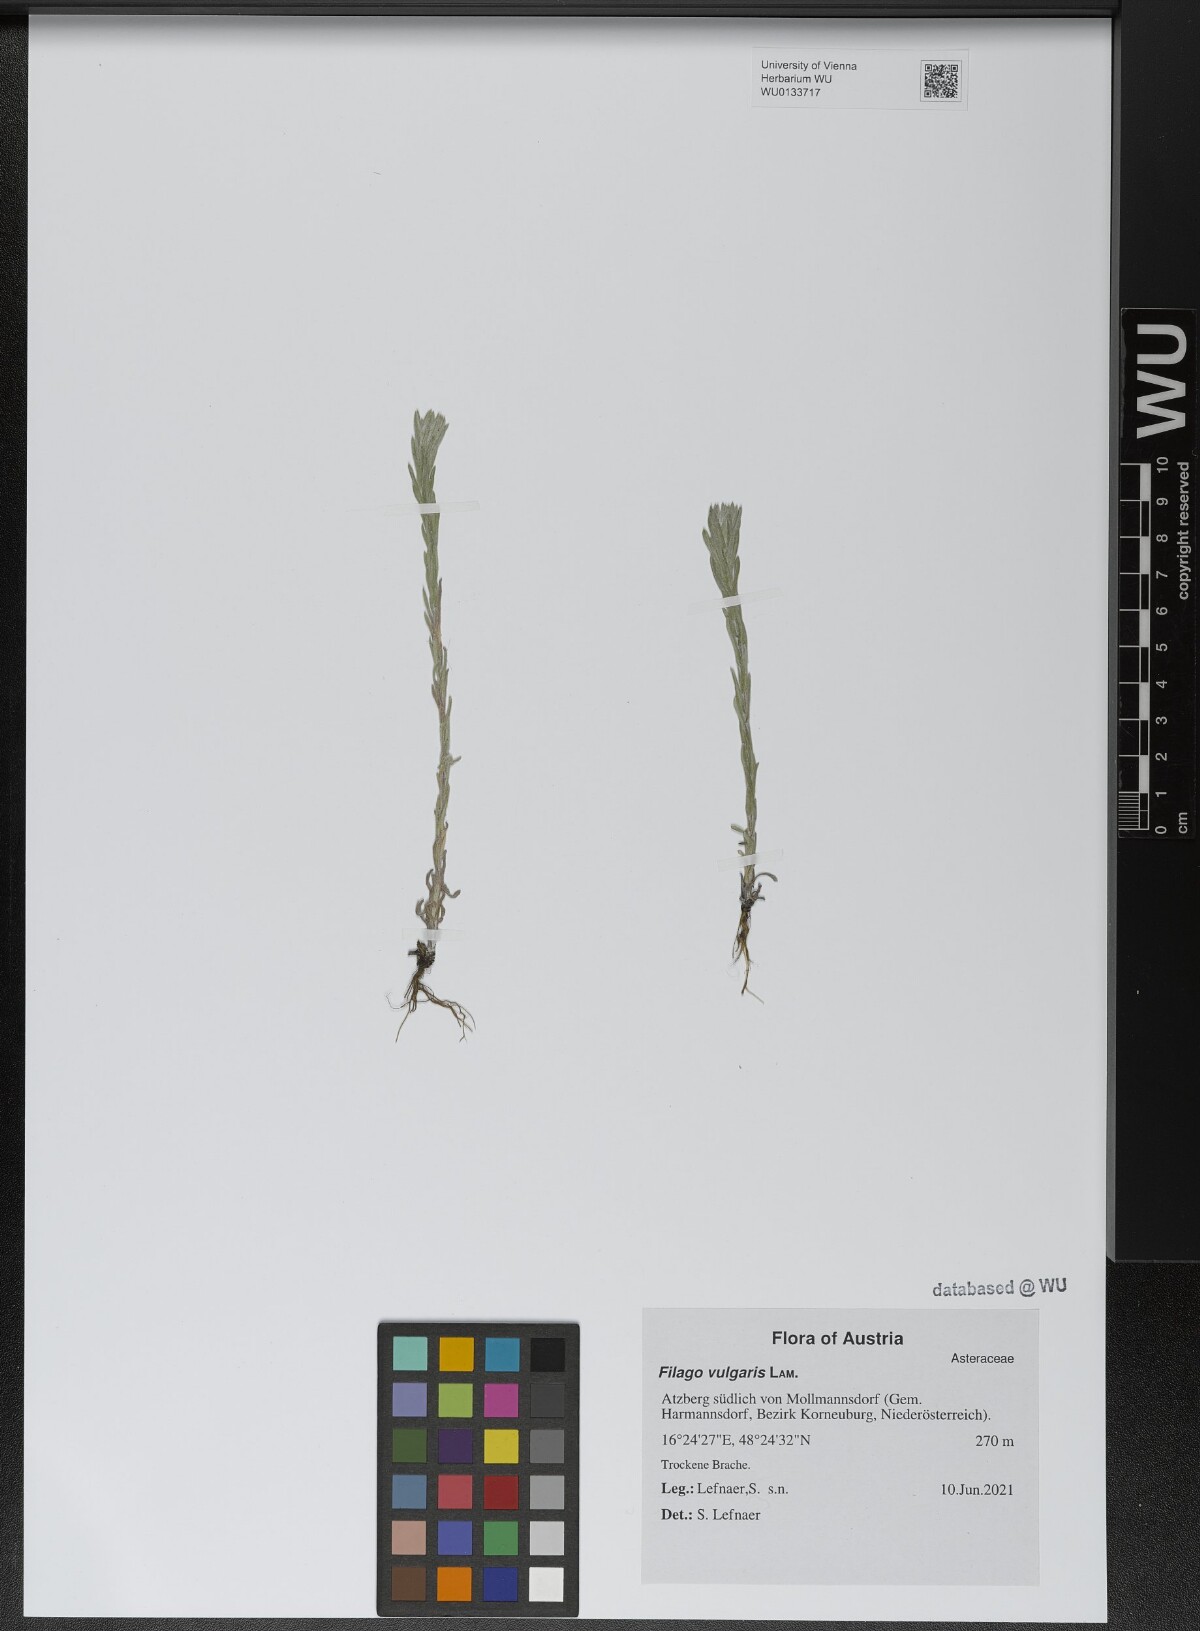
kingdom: Plantae
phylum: Tracheophyta
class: Magnoliopsida
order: Asterales
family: Asteraceae
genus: Filago
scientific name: Filago germanica
